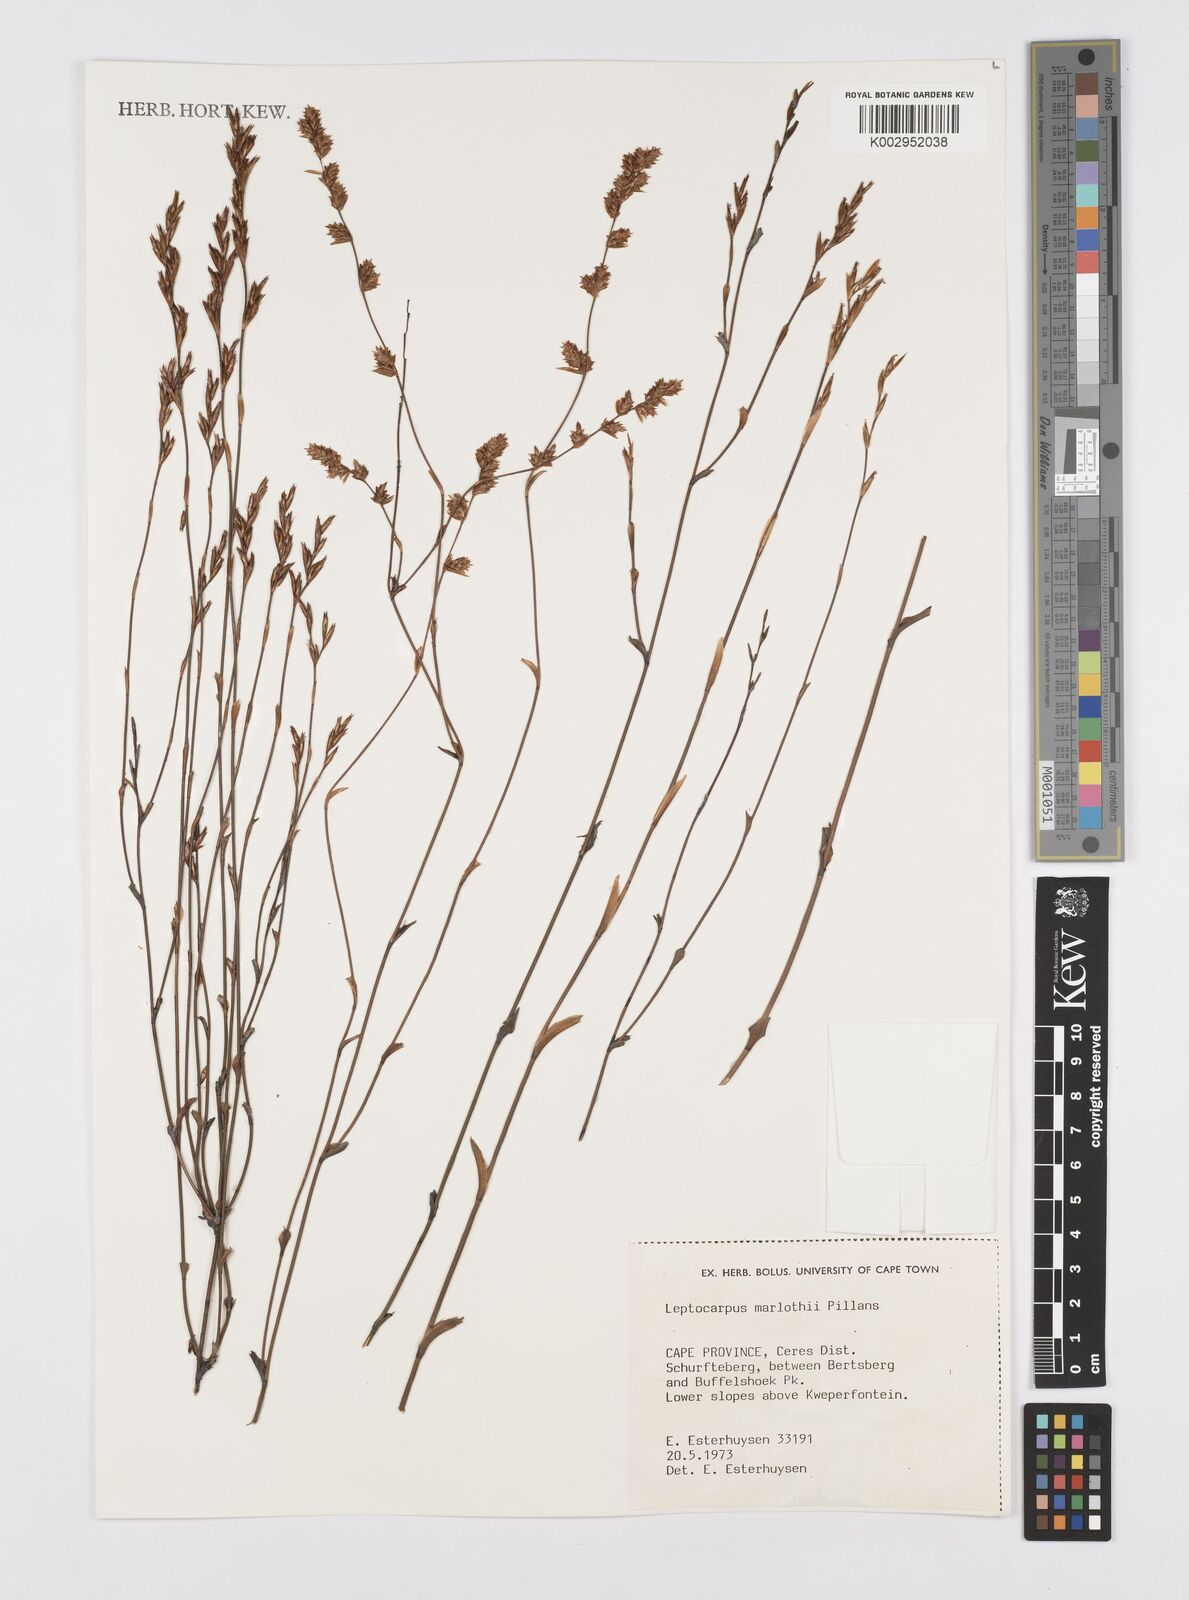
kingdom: Plantae
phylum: Tracheophyta
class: Liliopsida
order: Poales
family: Restionaceae
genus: Restio
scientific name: Restio marlothii
